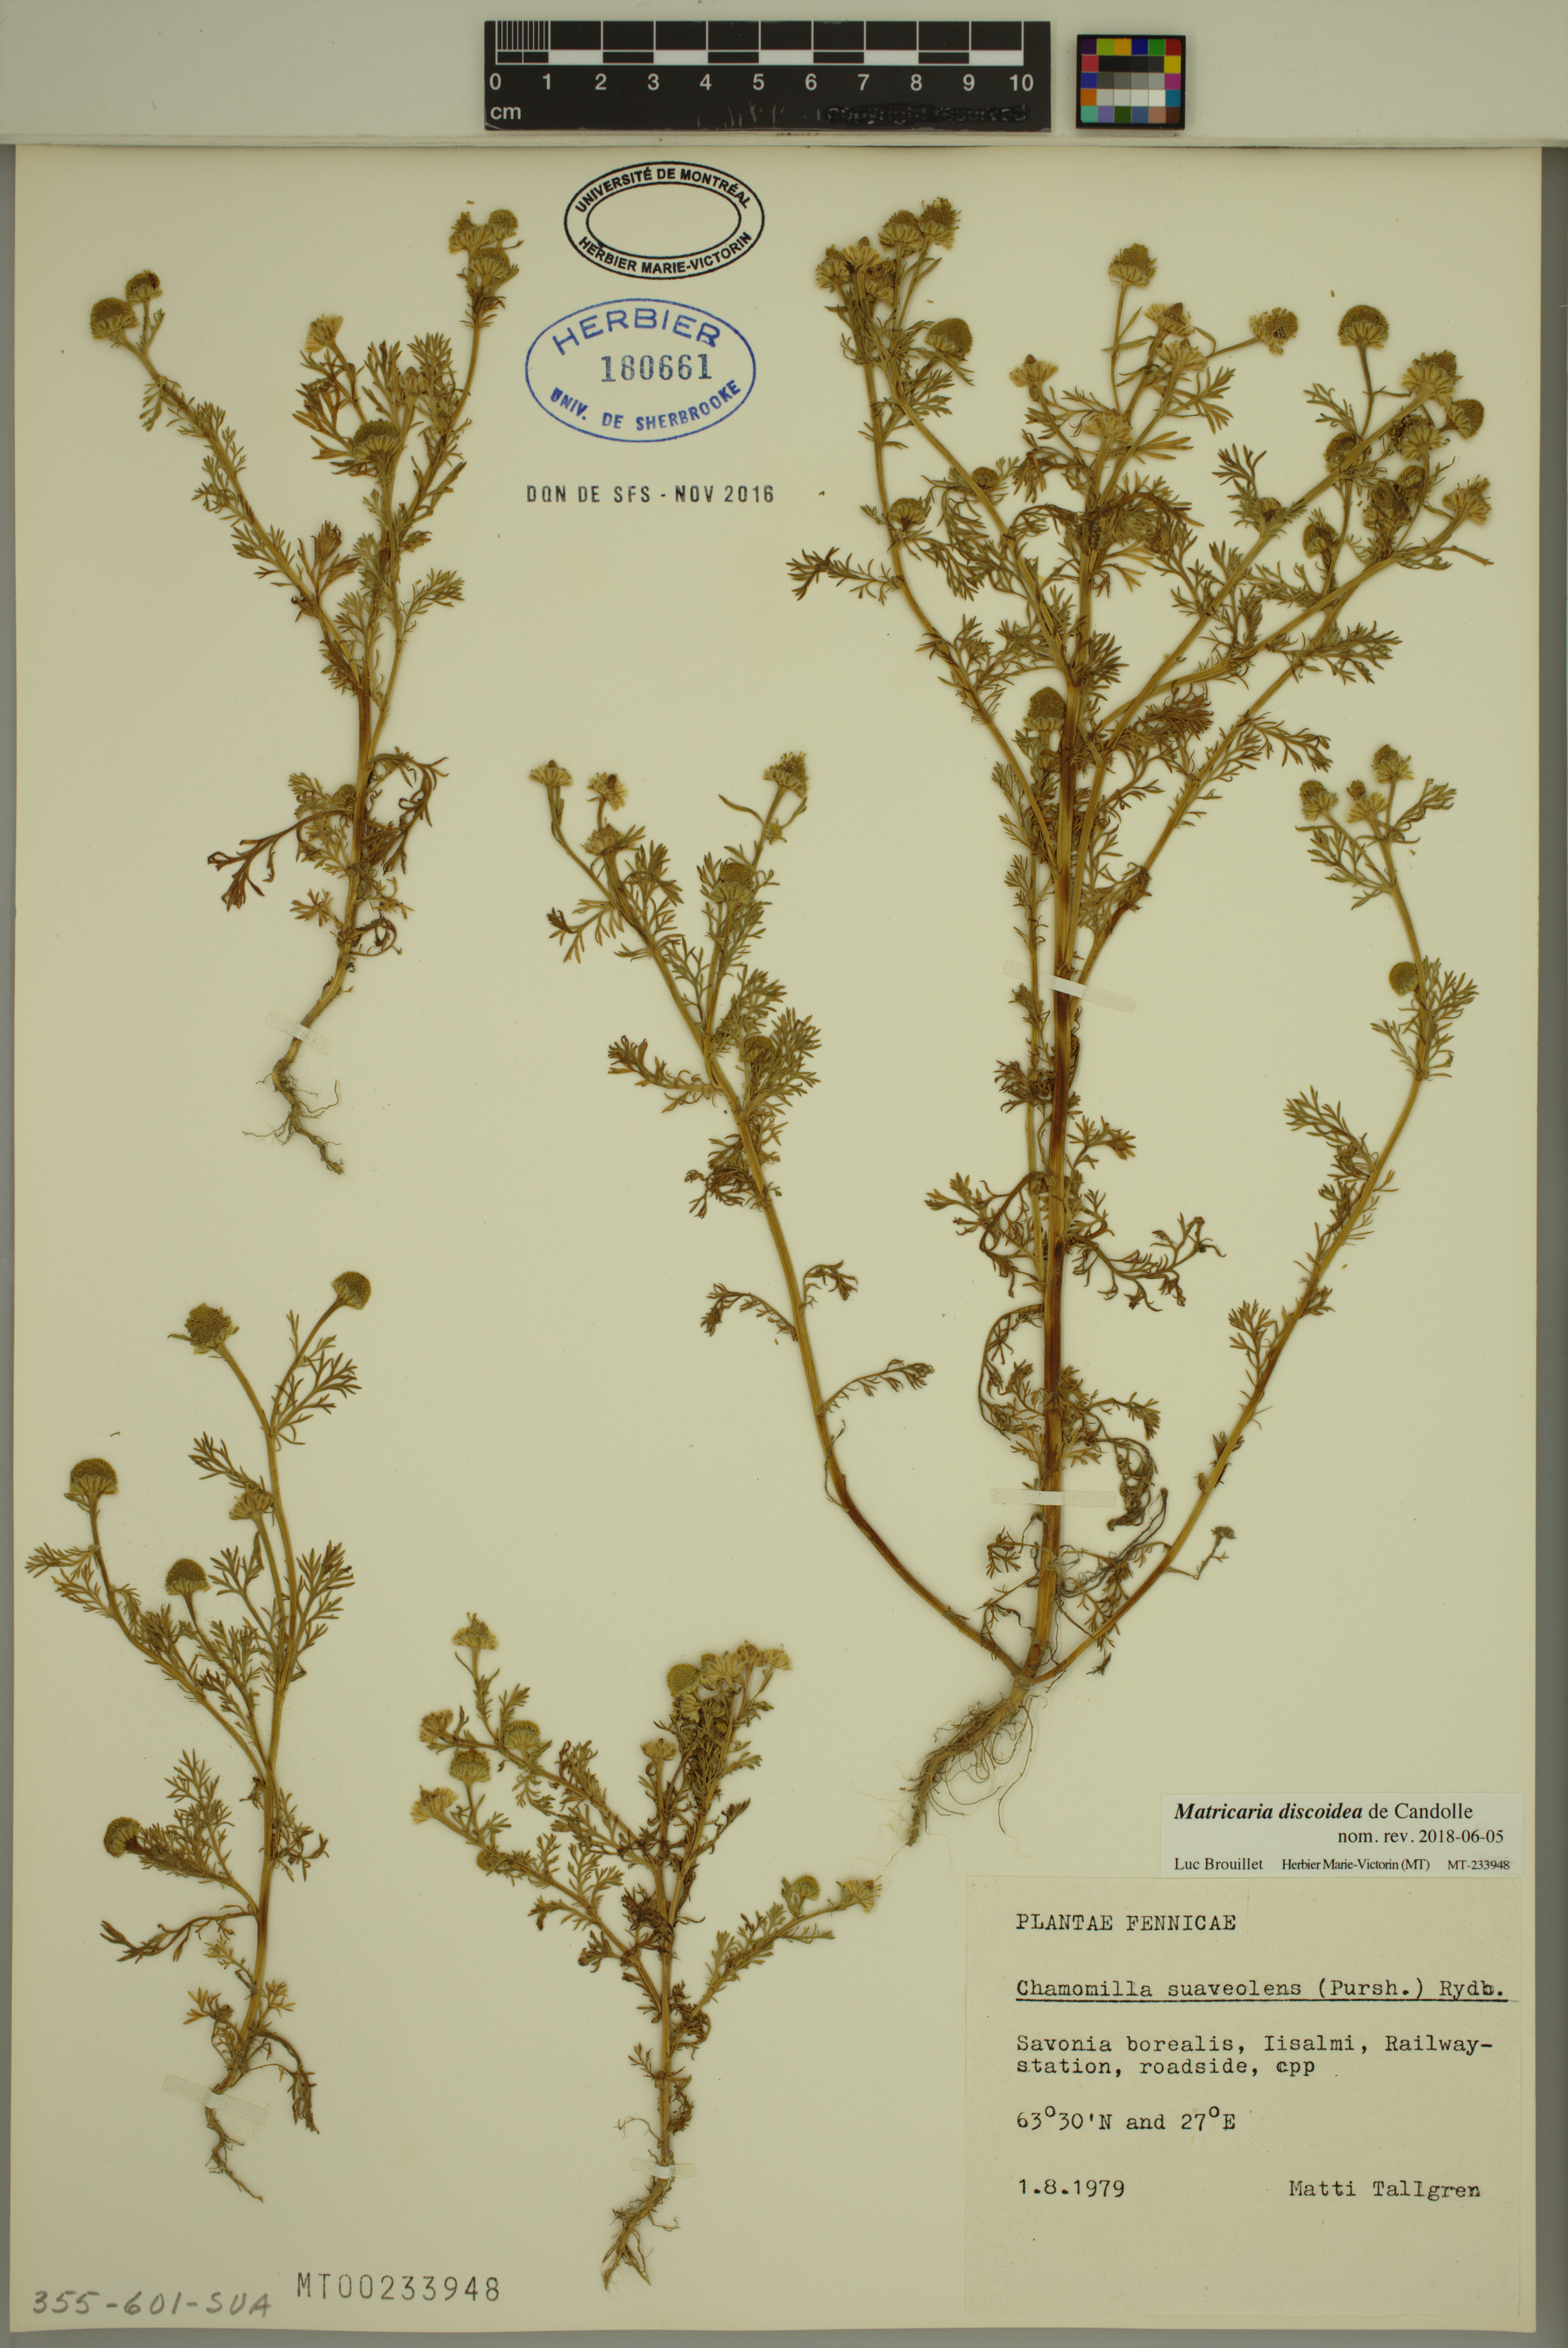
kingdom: Plantae
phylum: Tracheophyta
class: Magnoliopsida
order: Asterales
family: Asteraceae
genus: Matricaria
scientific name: Matricaria discoidea
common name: Disc mayweed
